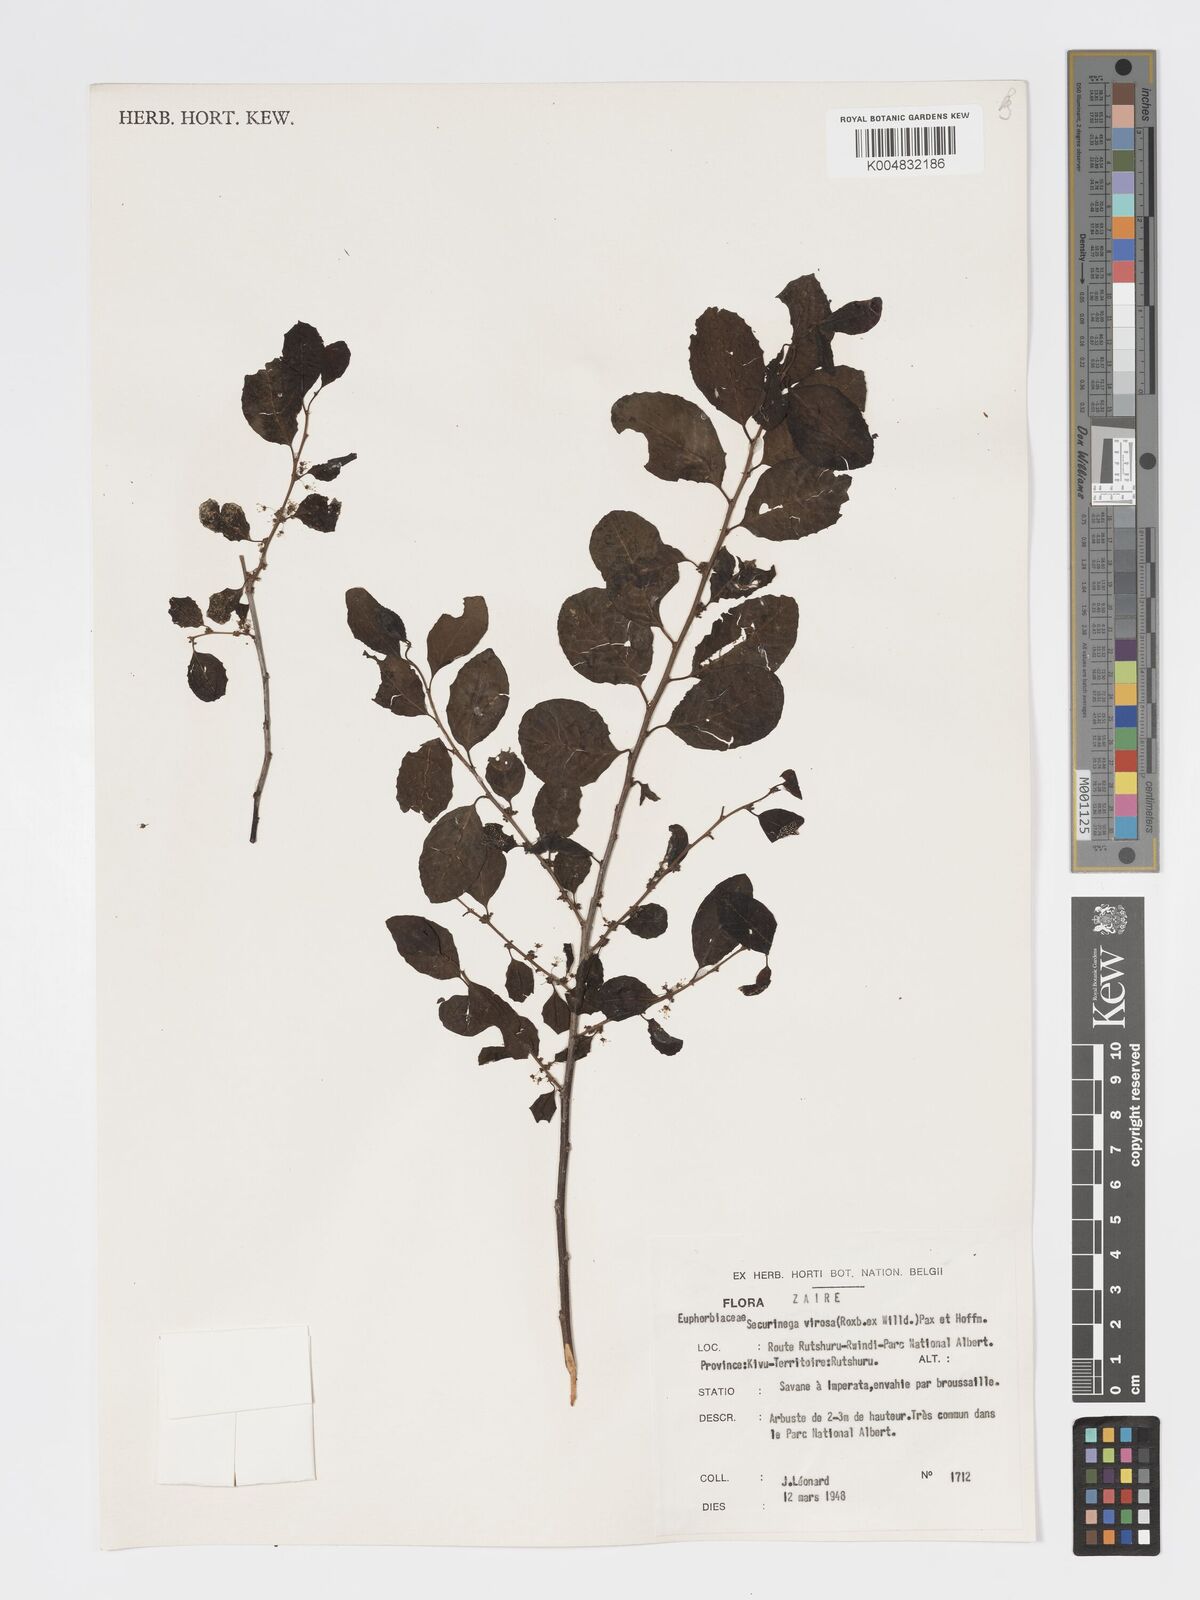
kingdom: Plantae
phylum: Tracheophyta
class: Magnoliopsida
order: Malpighiales
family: Phyllanthaceae
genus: Flueggea
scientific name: Flueggea virosa
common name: Common bushweed
